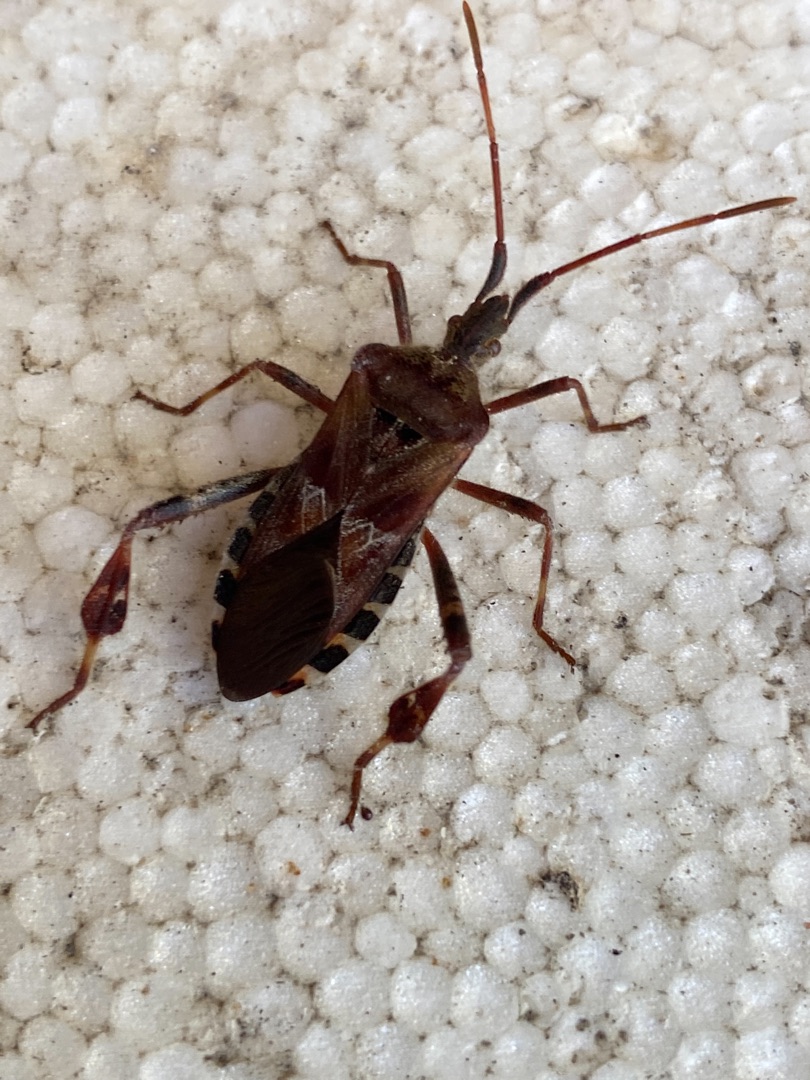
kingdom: Animalia
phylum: Arthropoda
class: Insecta
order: Hemiptera
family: Coreidae
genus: Leptoglossus
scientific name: Leptoglossus occidentalis
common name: Amerikansk fyrretæge
